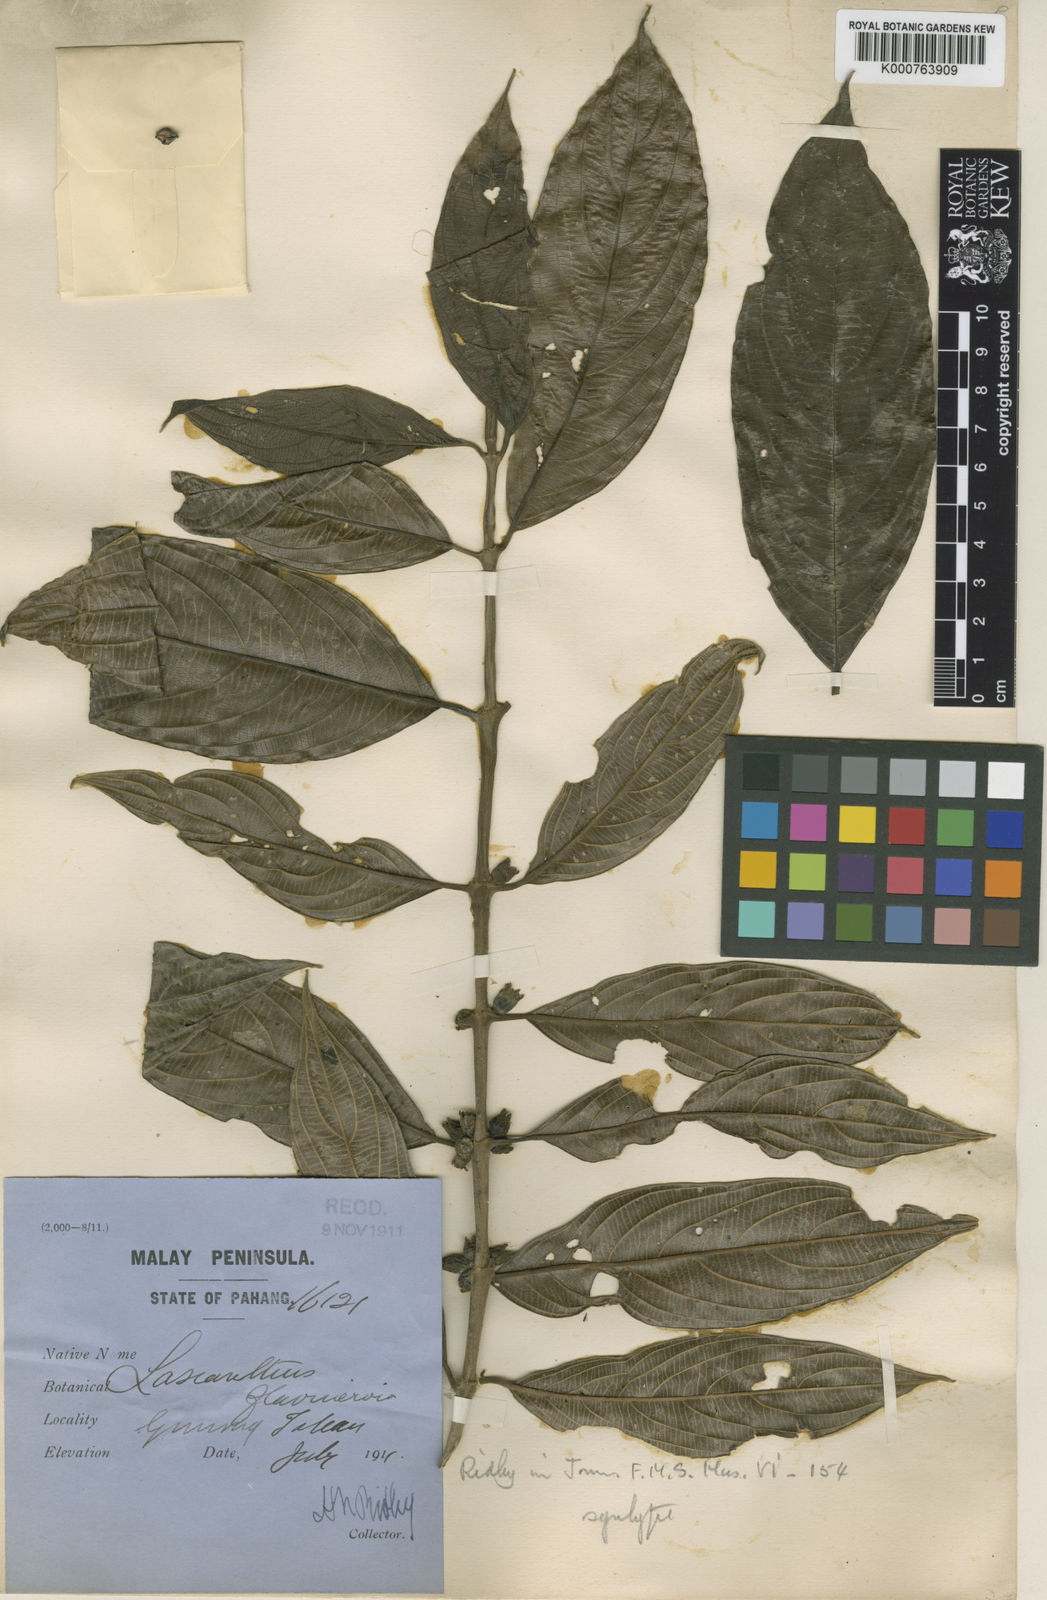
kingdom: Plantae
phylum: Tracheophyta
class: Magnoliopsida
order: Gentianales
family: Rubiaceae
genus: Lasianthus
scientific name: Lasianthus flavinervius
